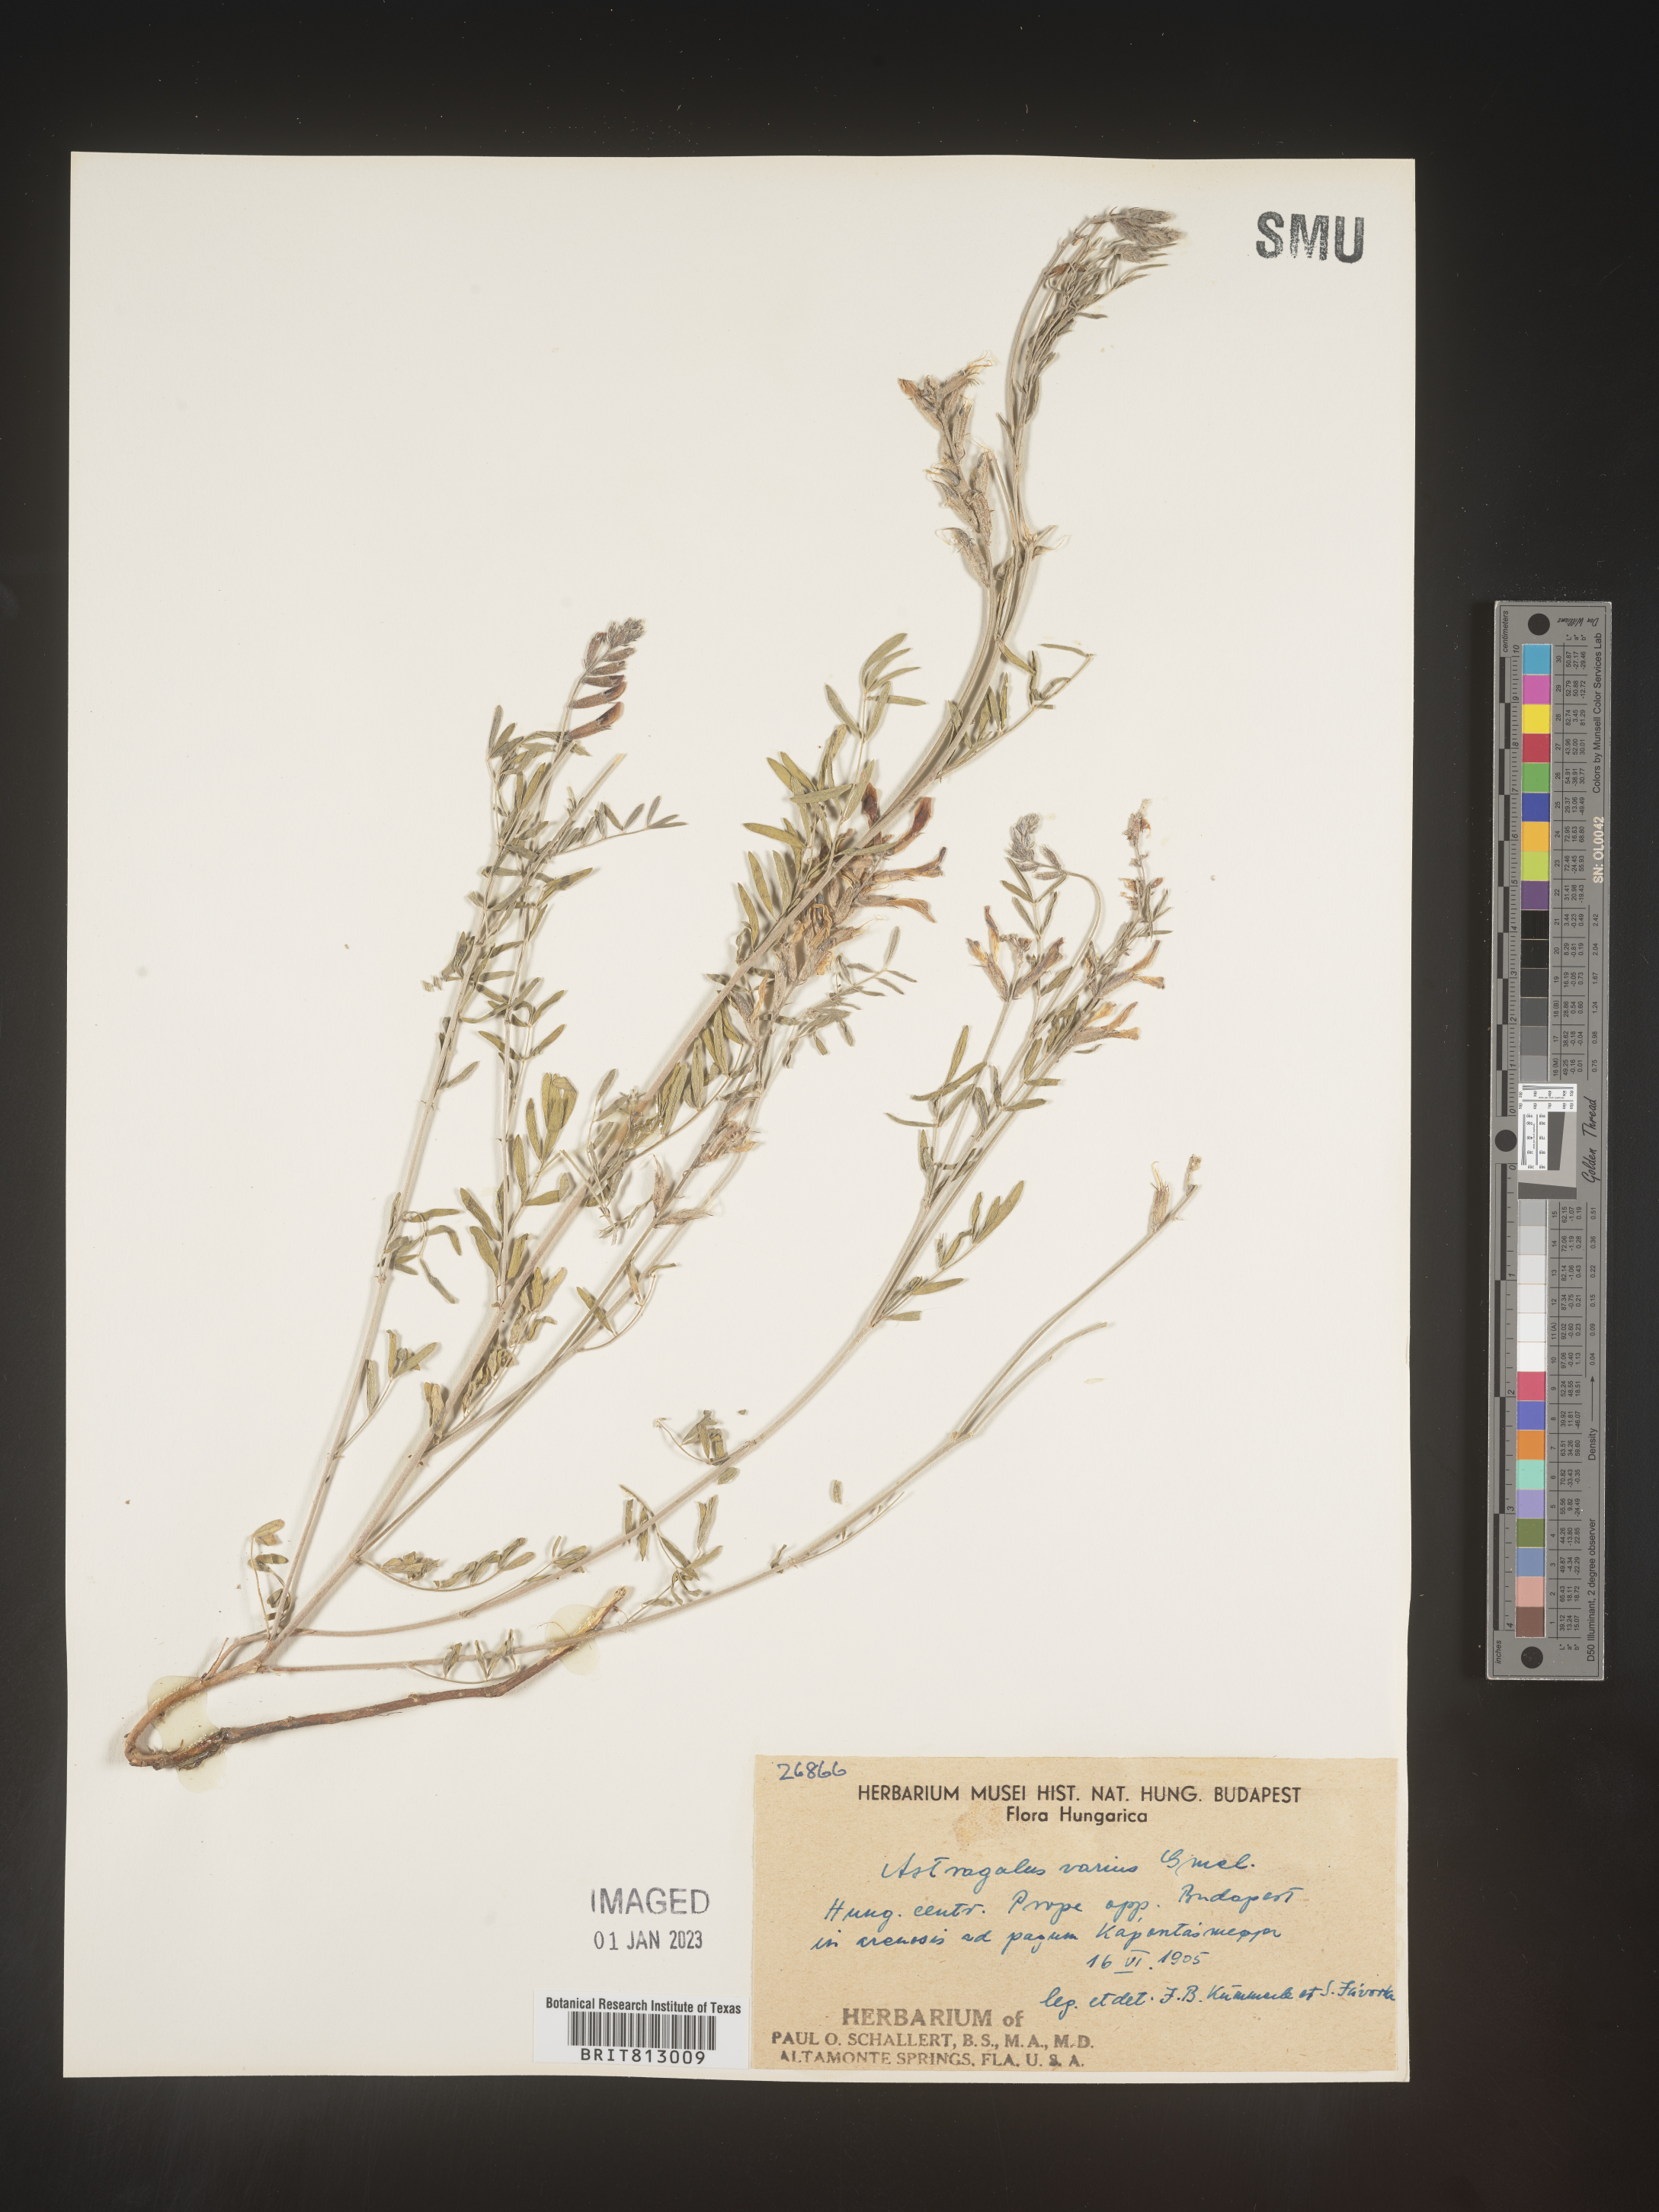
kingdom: Plantae
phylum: Tracheophyta
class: Magnoliopsida
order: Fabales
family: Fabaceae
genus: Astragalus
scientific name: Astragalus
